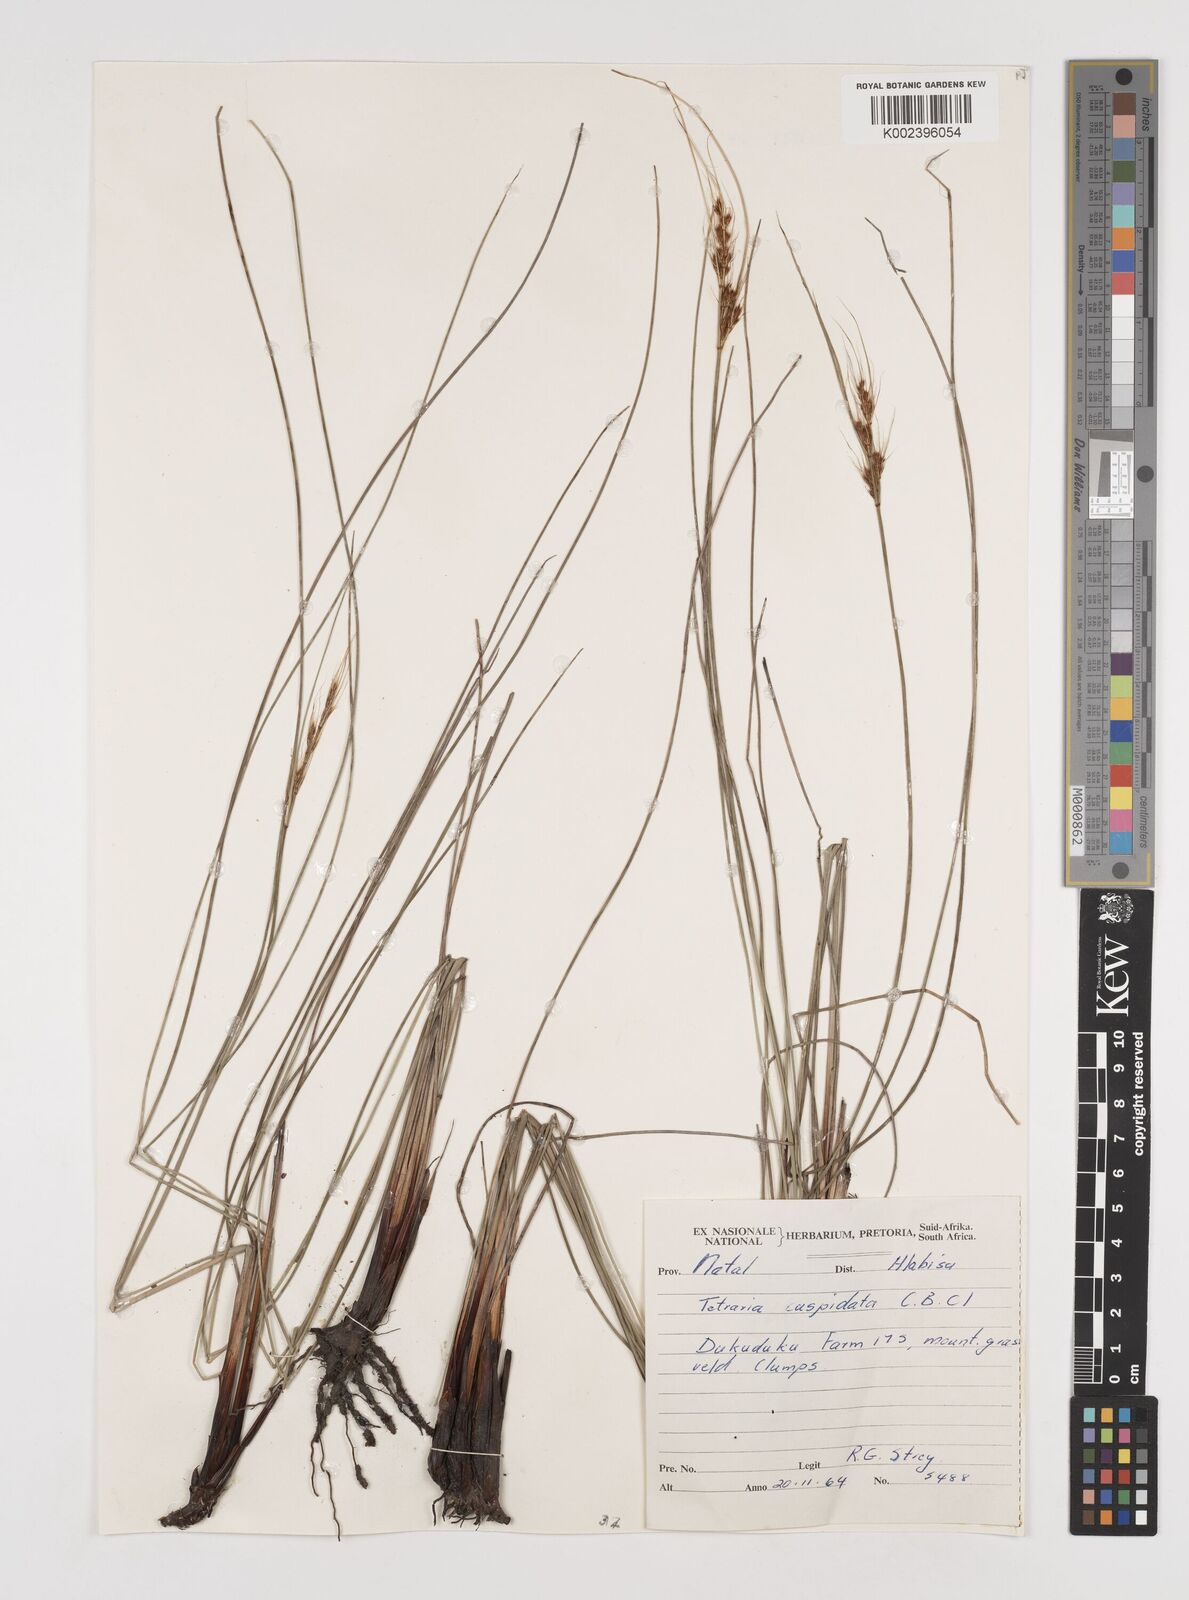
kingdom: Plantae
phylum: Tracheophyta
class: Liliopsida
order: Poales
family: Cyperaceae
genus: Schoenus
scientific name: Schoenus cuspidatus
